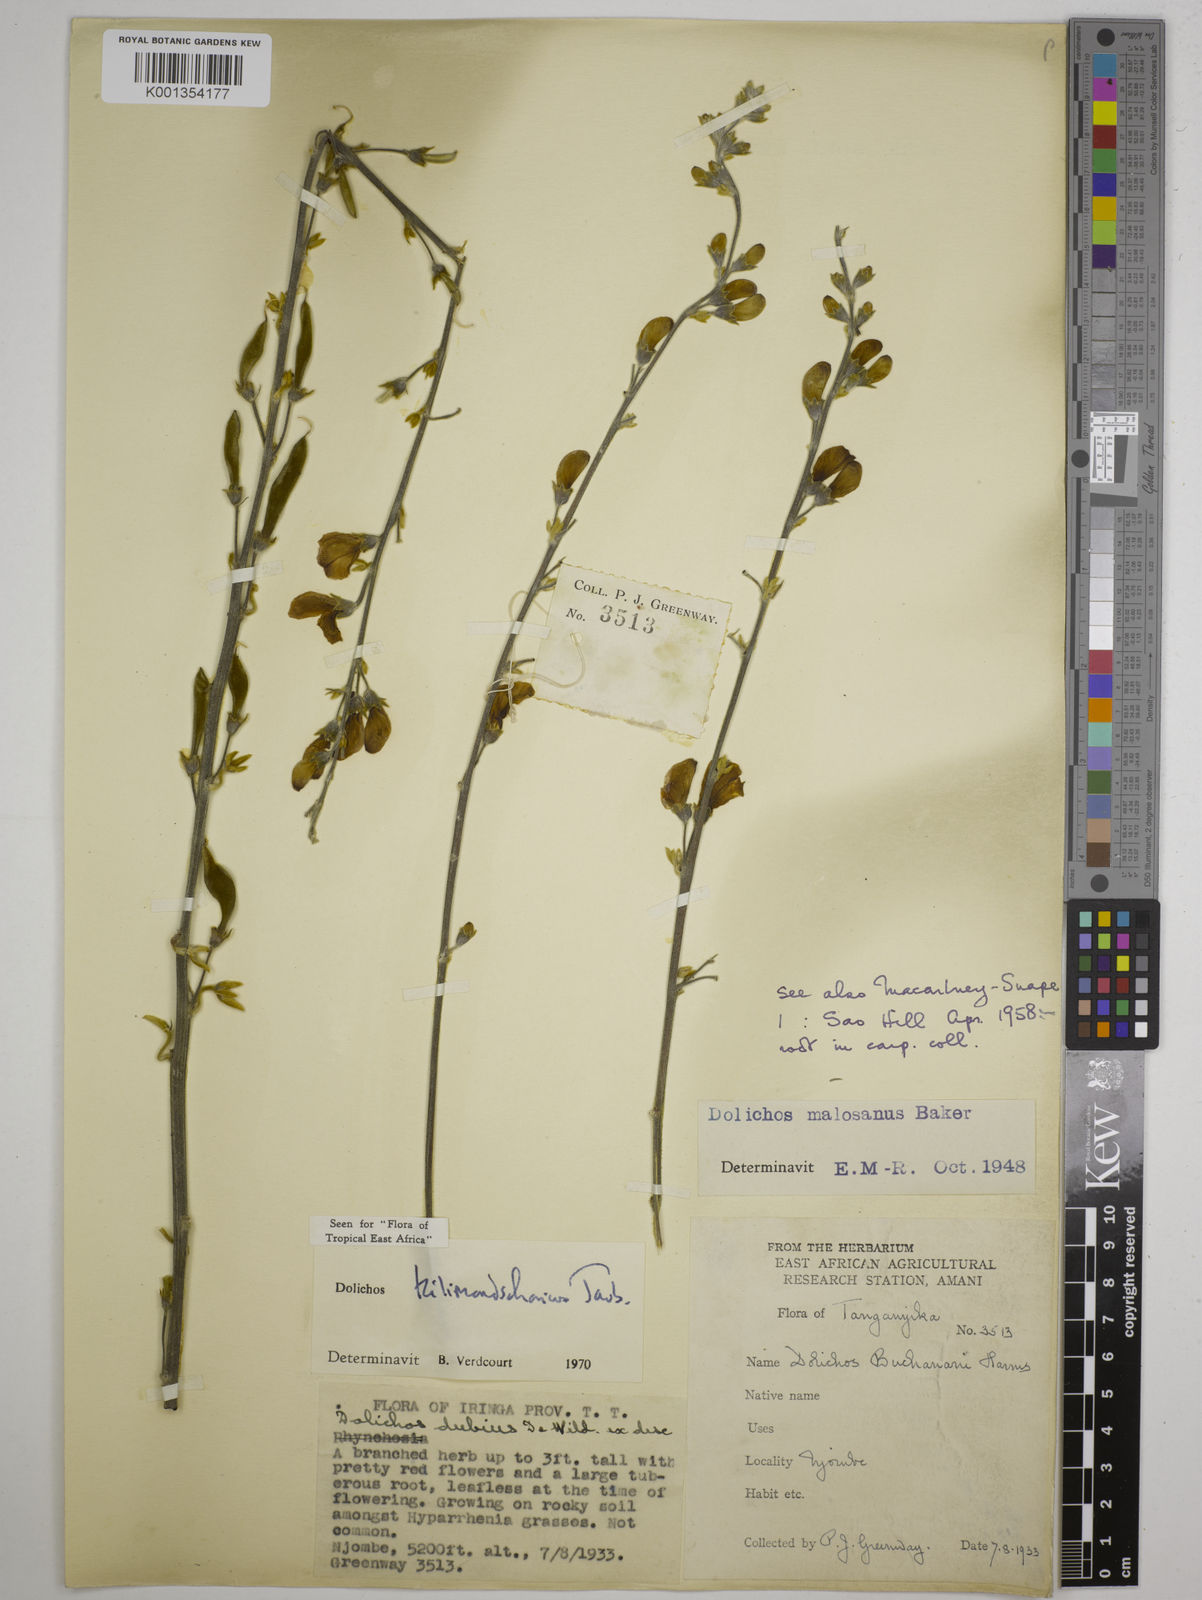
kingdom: Plantae
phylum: Tracheophyta
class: Magnoliopsida
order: Fabales
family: Fabaceae
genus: Dolichos
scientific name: Dolichos kilimandscharicus
